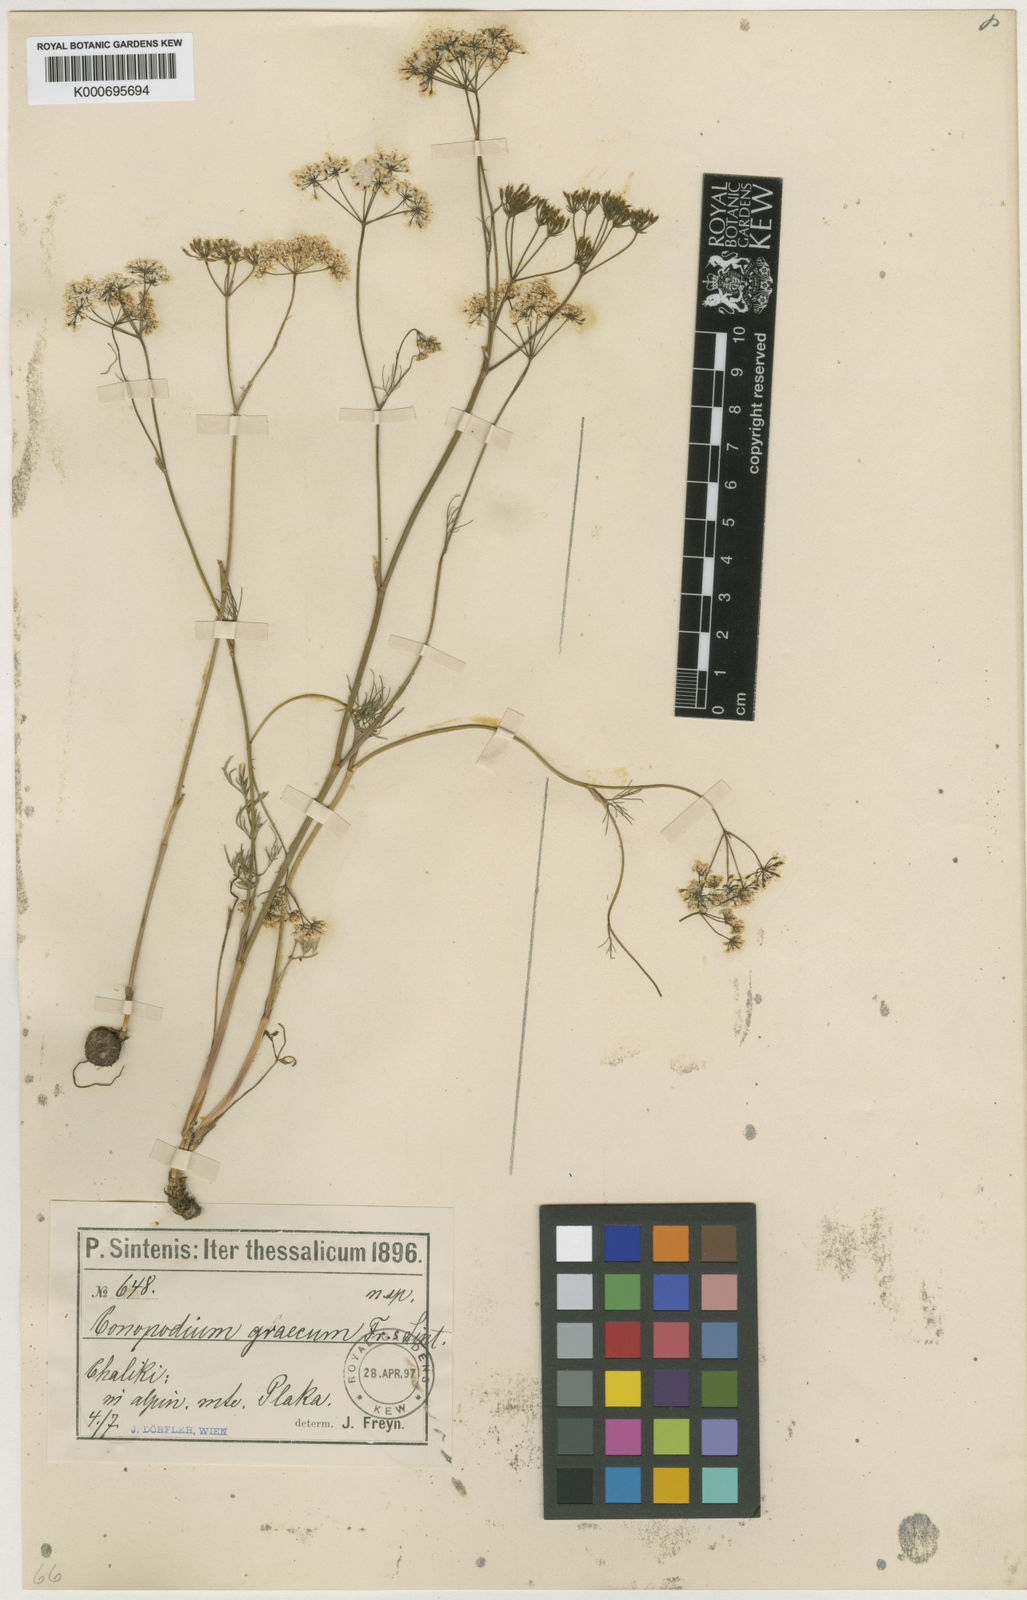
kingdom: Plantae
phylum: Tracheophyta
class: Magnoliopsida
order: Apiales
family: Apiaceae
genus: Scaligeria
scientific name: Scaligeria
